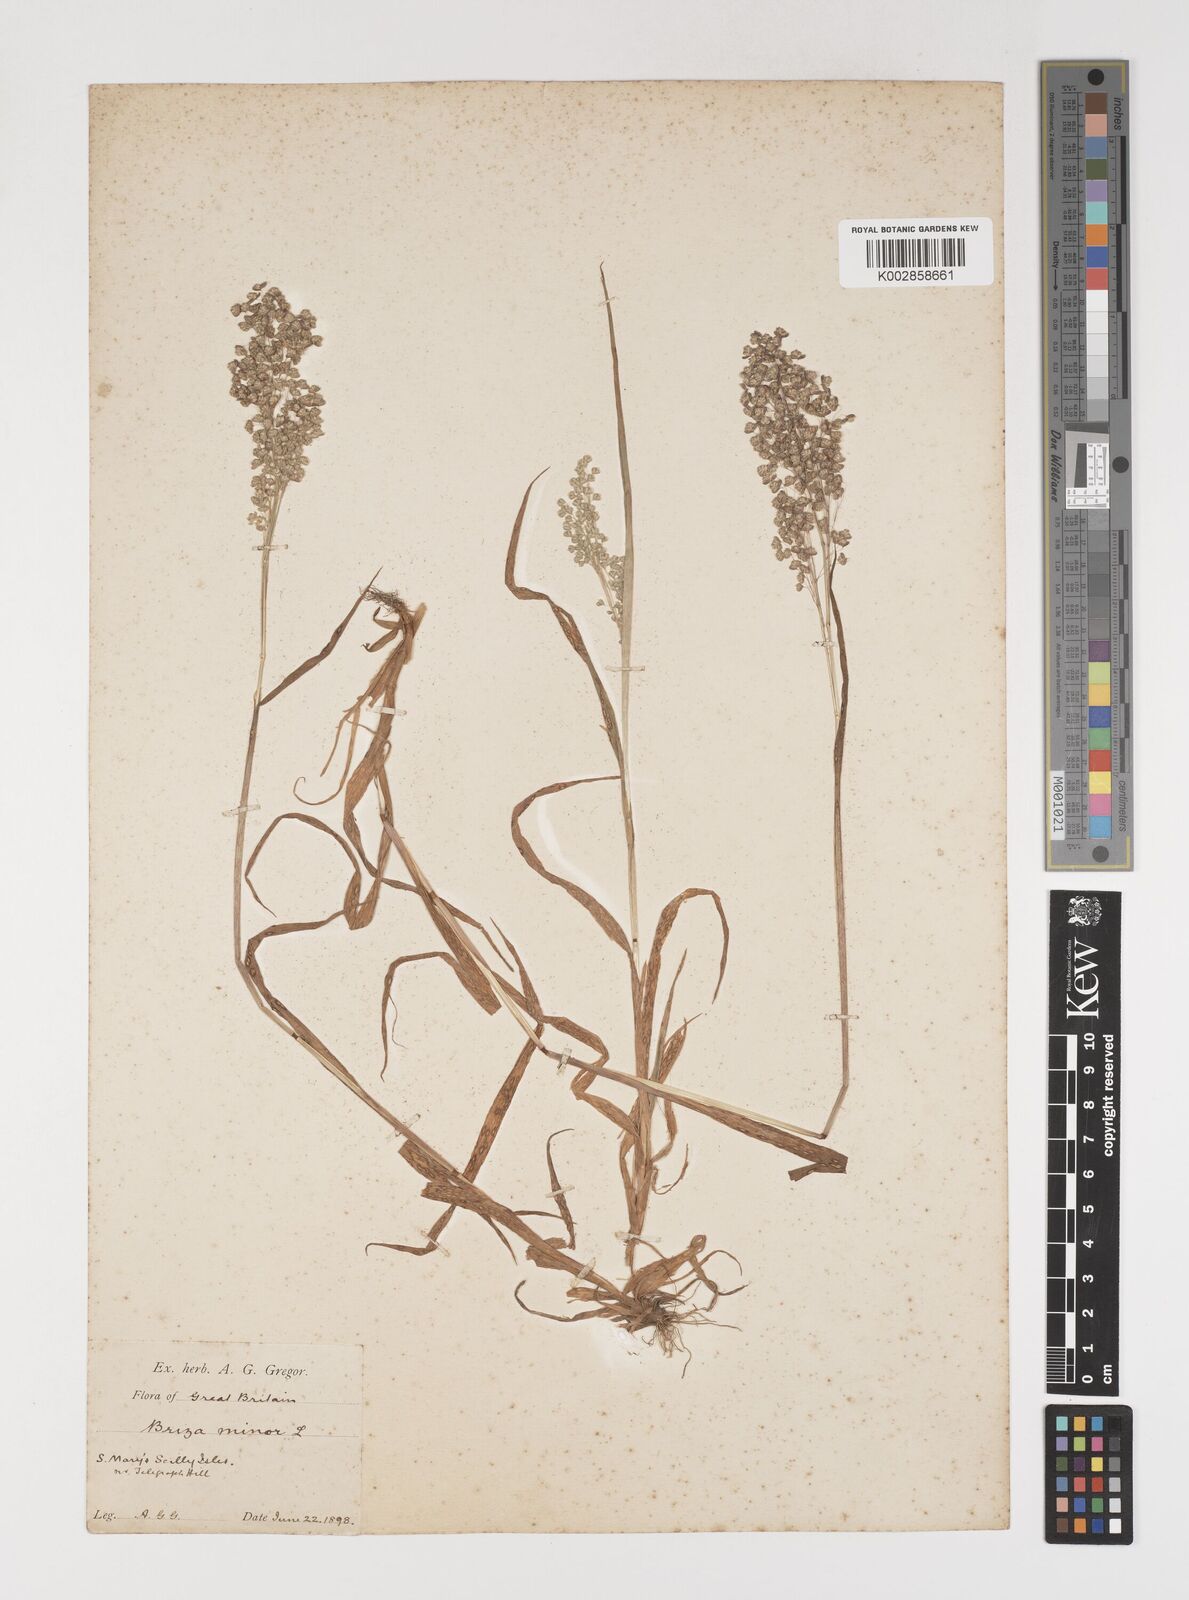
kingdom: Plantae
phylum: Tracheophyta
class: Liliopsida
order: Poales
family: Poaceae
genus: Briza
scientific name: Briza minor
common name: Lesser quaking-grass
